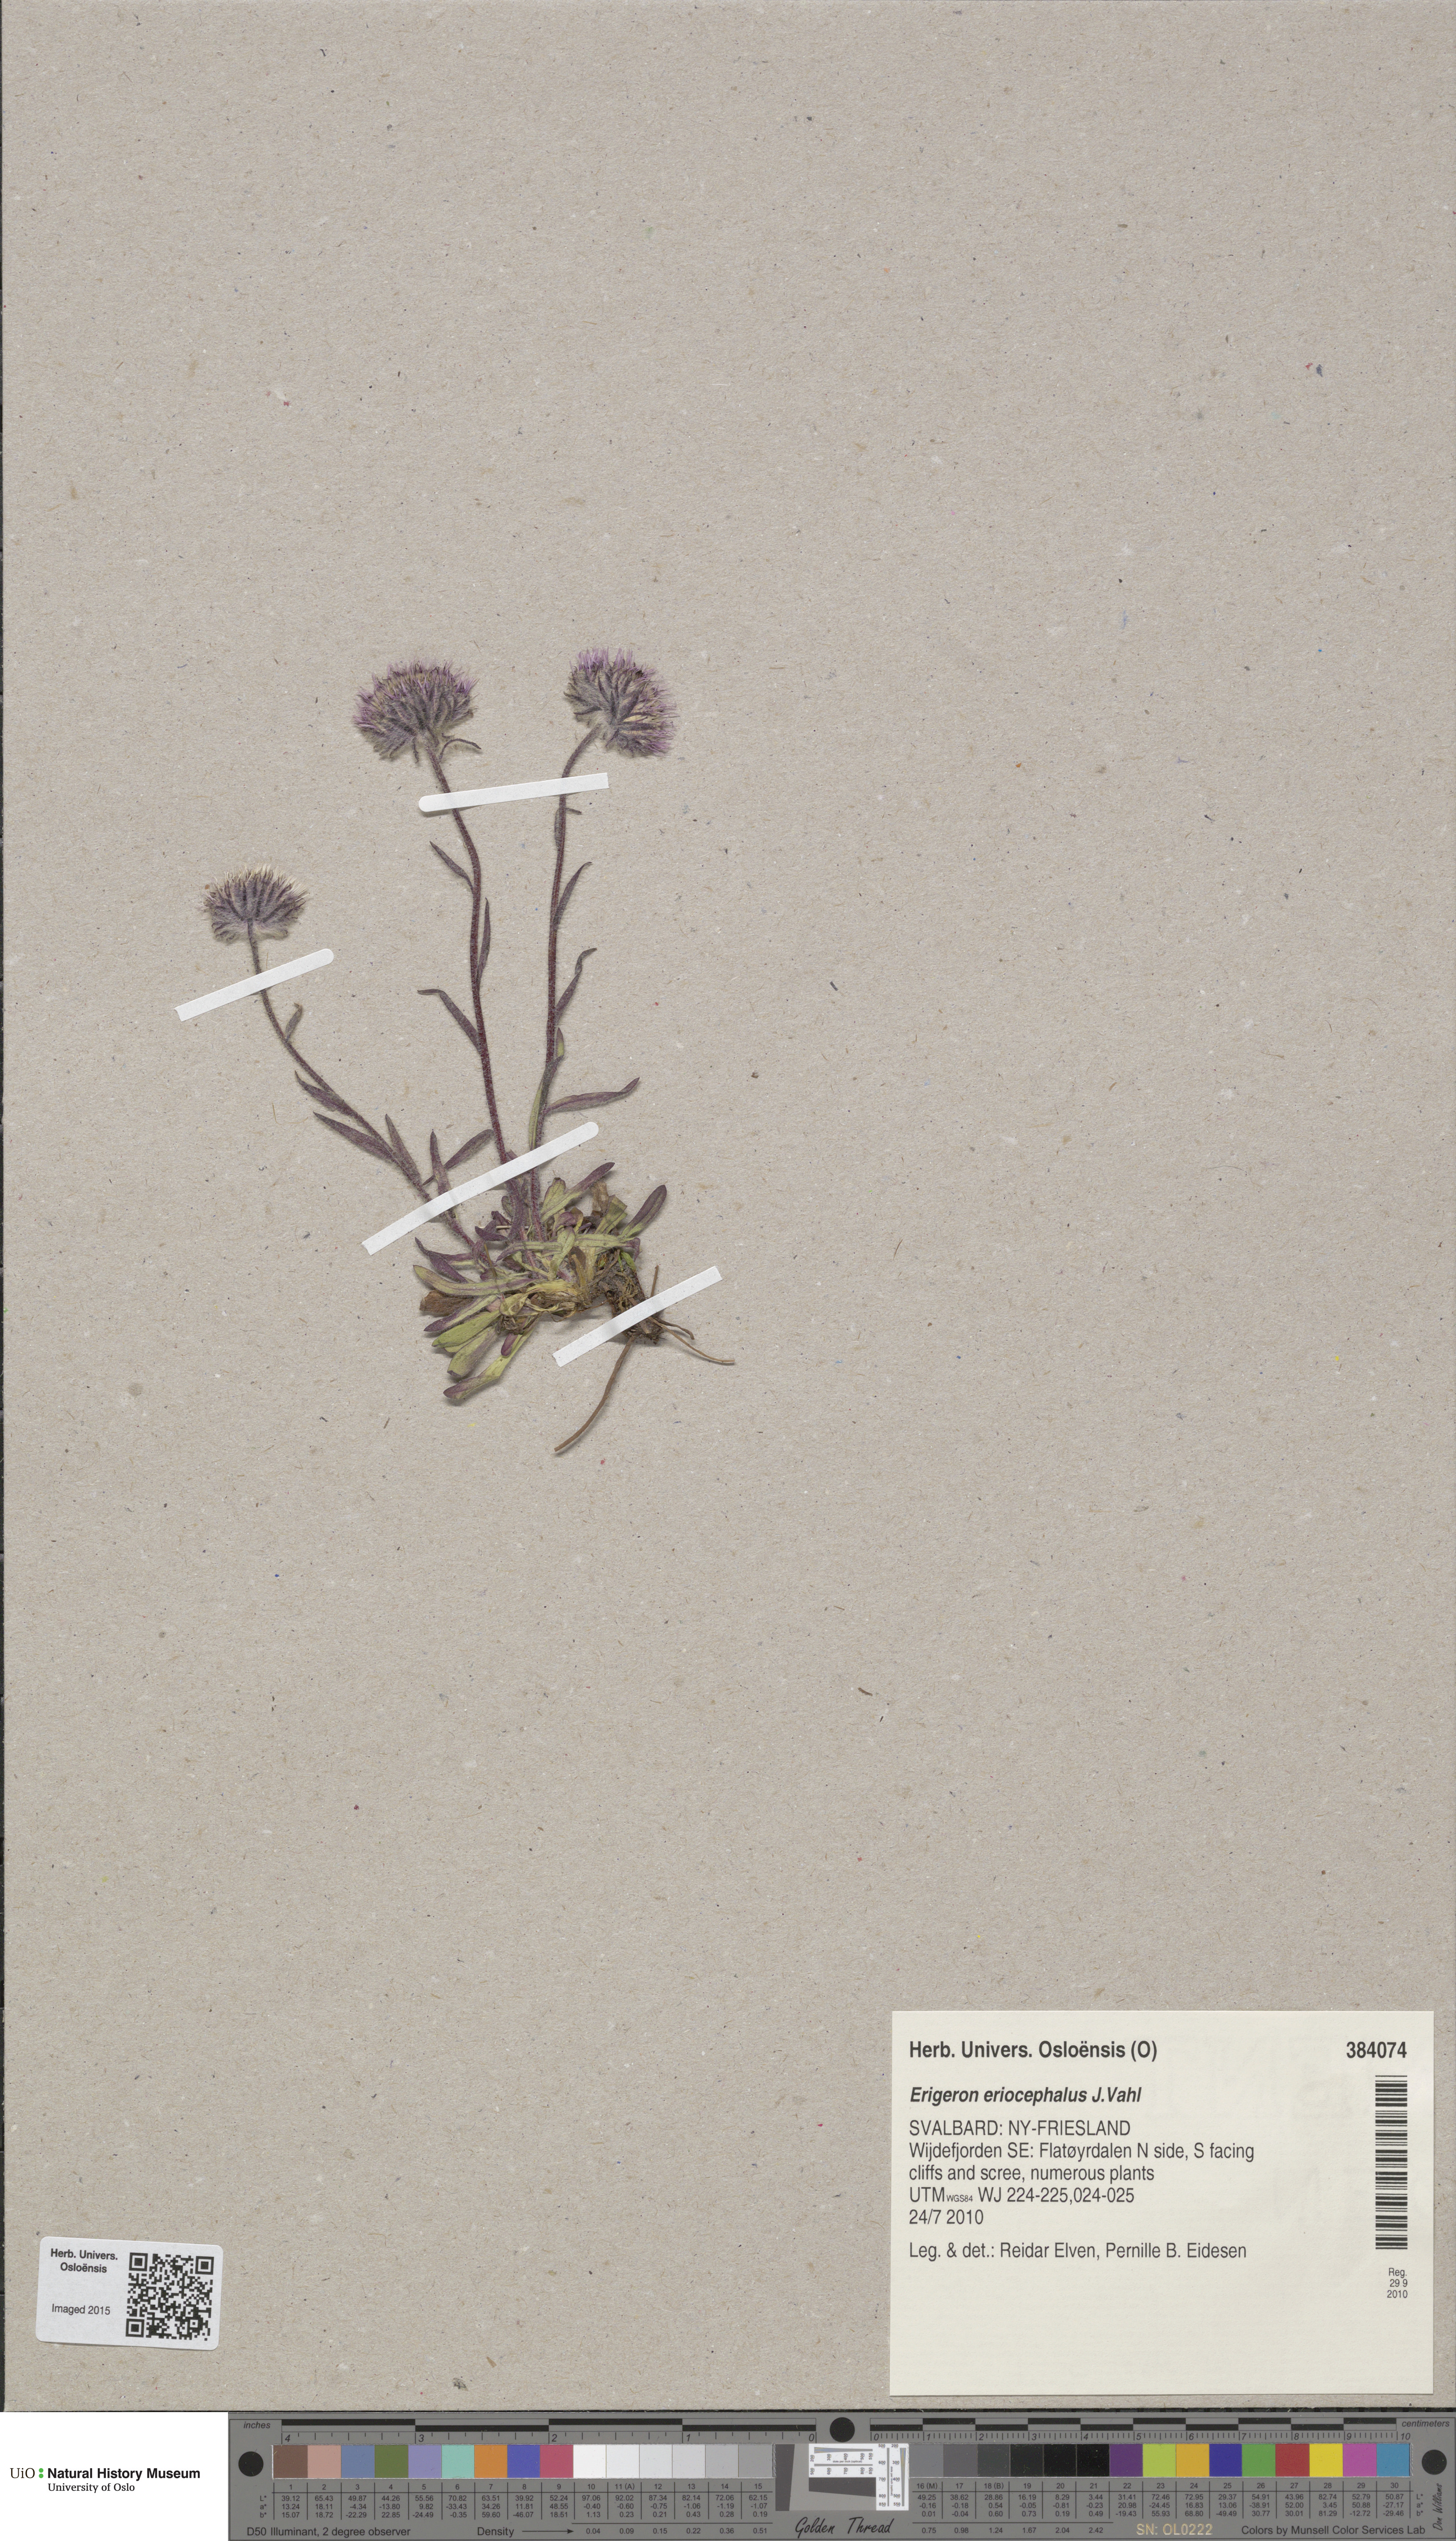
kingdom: Plantae
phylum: Tracheophyta
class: Magnoliopsida
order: Asterales
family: Asteraceae
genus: Erigeron
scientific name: Erigeron eriocephalus
